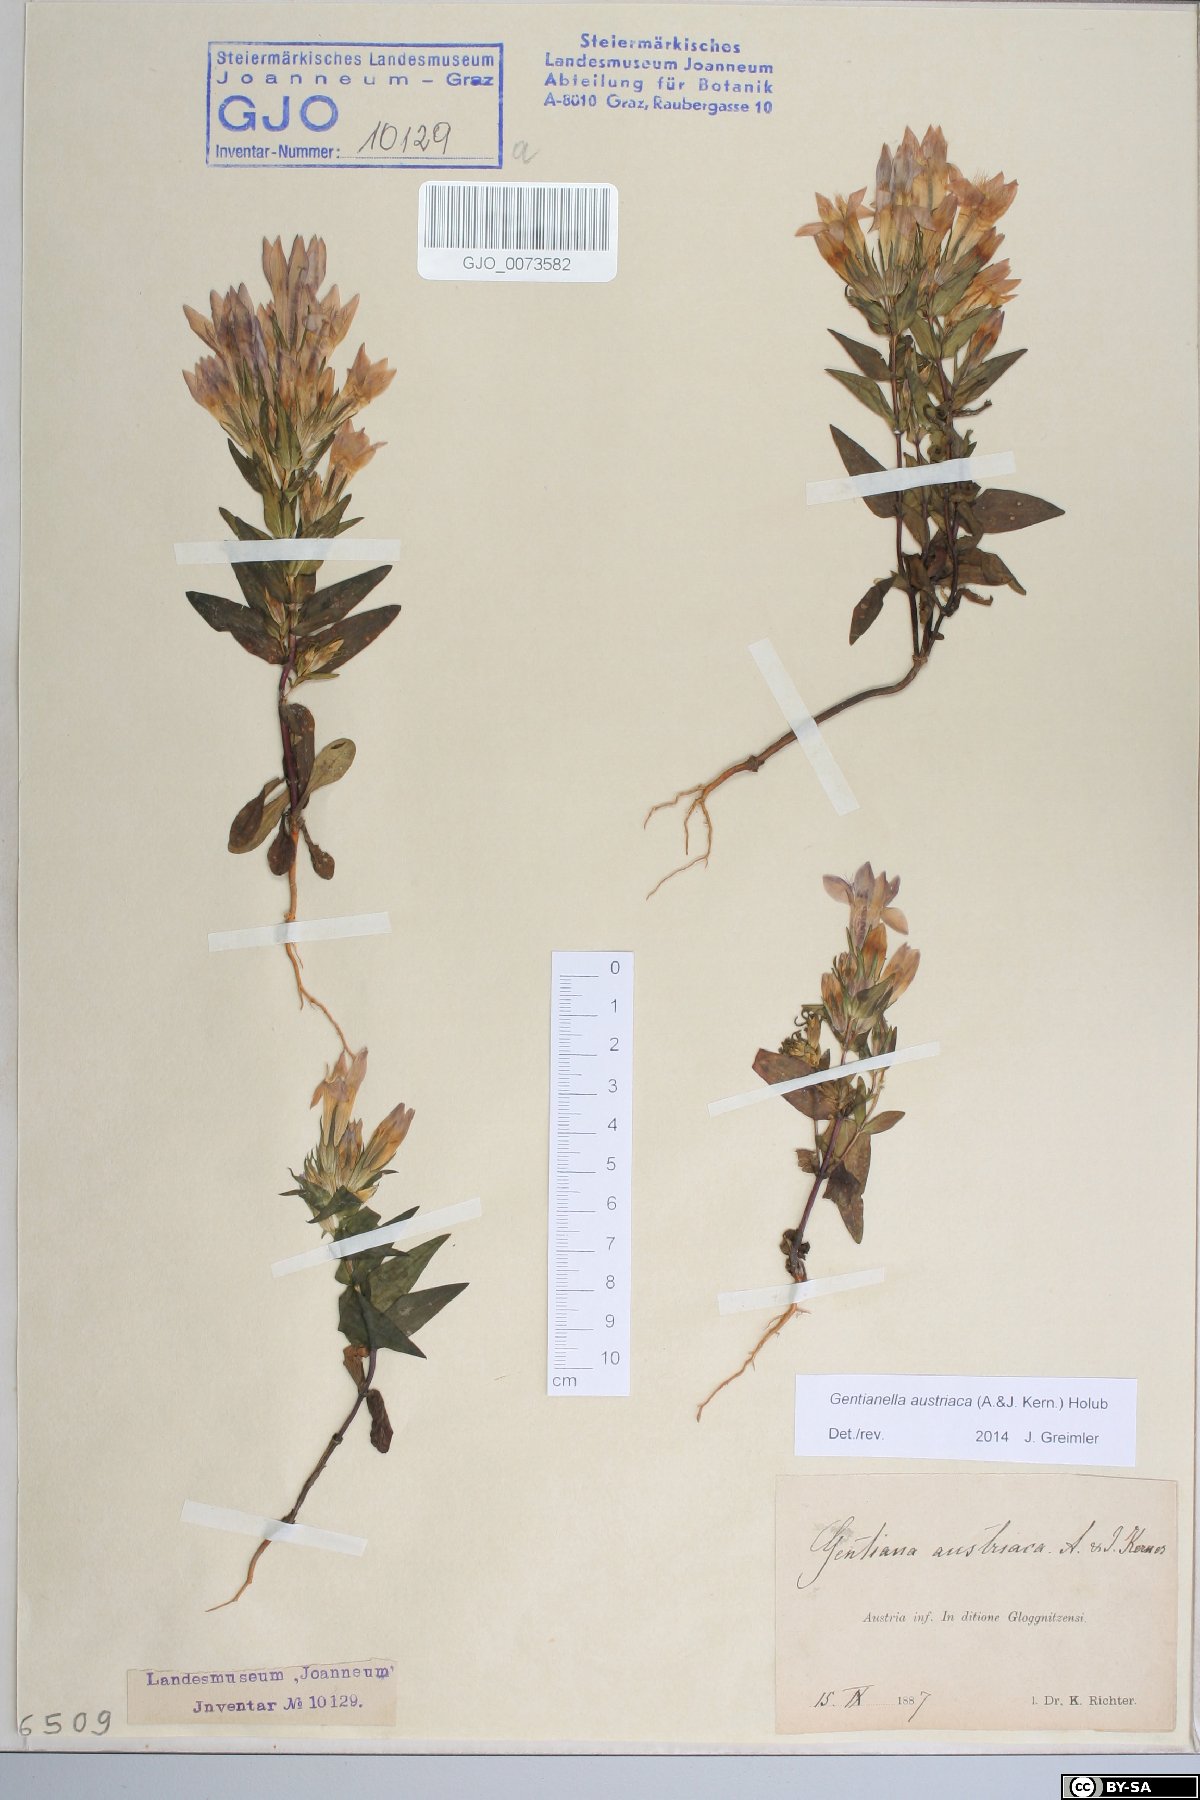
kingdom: Plantae
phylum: Tracheophyta
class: Magnoliopsida
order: Gentianales
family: Gentianaceae
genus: Gentianella
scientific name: Gentianella austriaca
